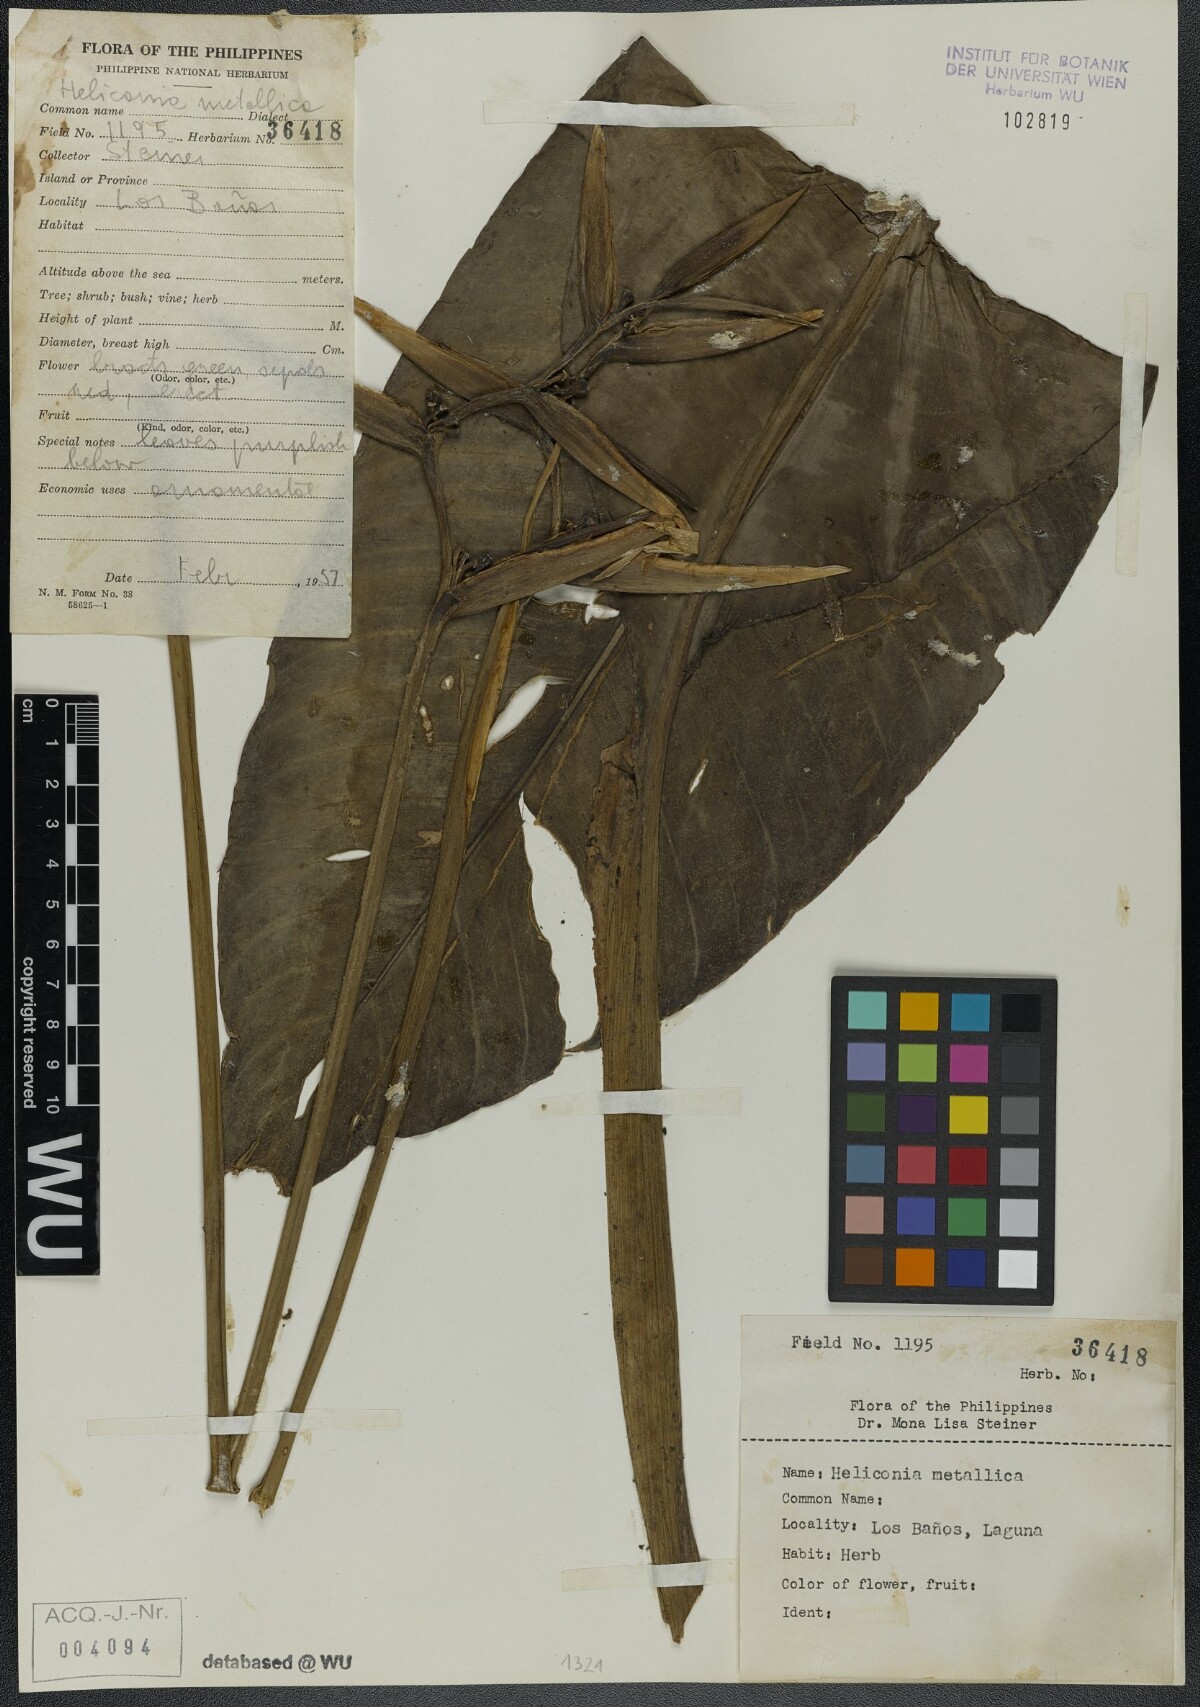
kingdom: Plantae
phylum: Tracheophyta
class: Liliopsida
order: Zingiberales
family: Heliconiaceae
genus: Heliconia
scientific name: Heliconia metallica
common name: Shining bird of paradise
